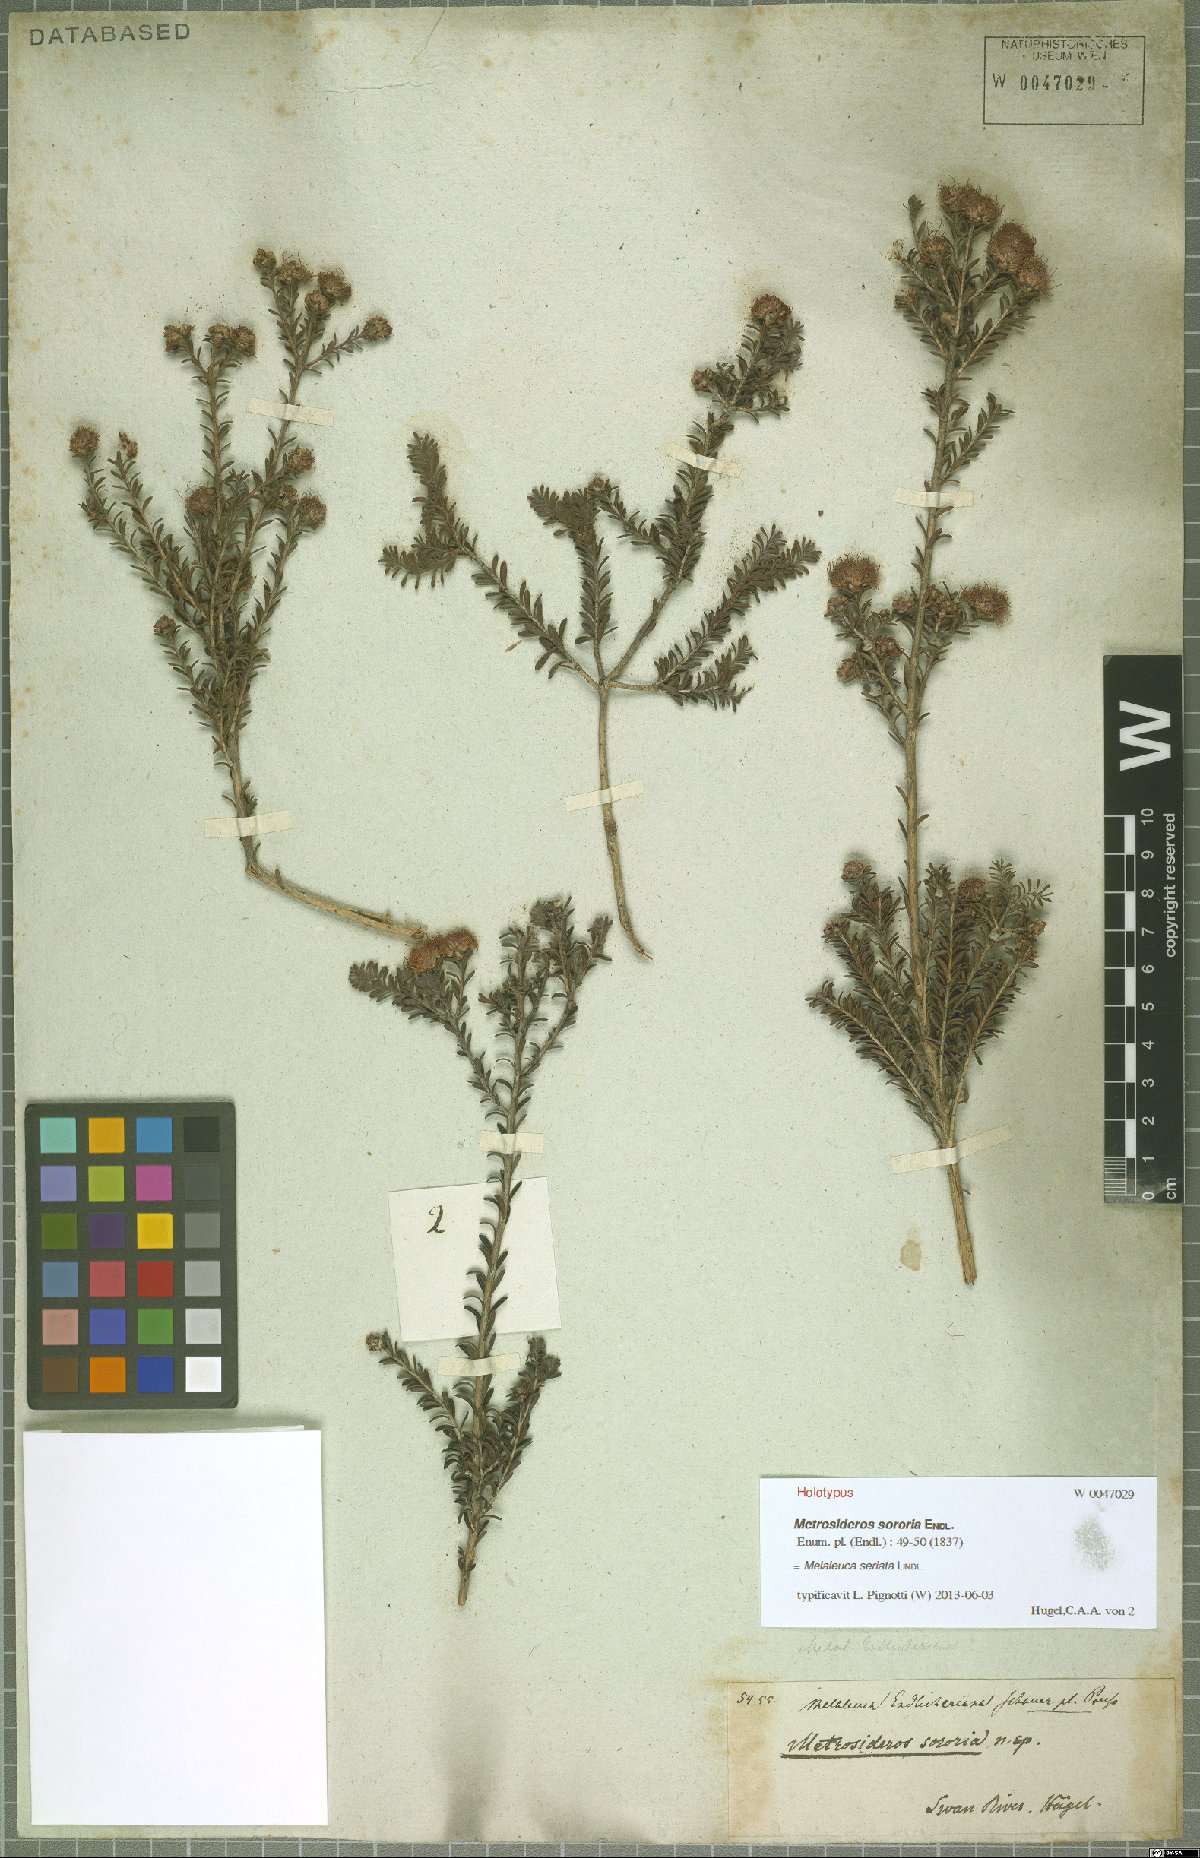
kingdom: Plantae
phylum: Tracheophyta
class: Magnoliopsida
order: Myrtales
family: Myrtaceae
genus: Melaleuca
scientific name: Melaleuca seriata
